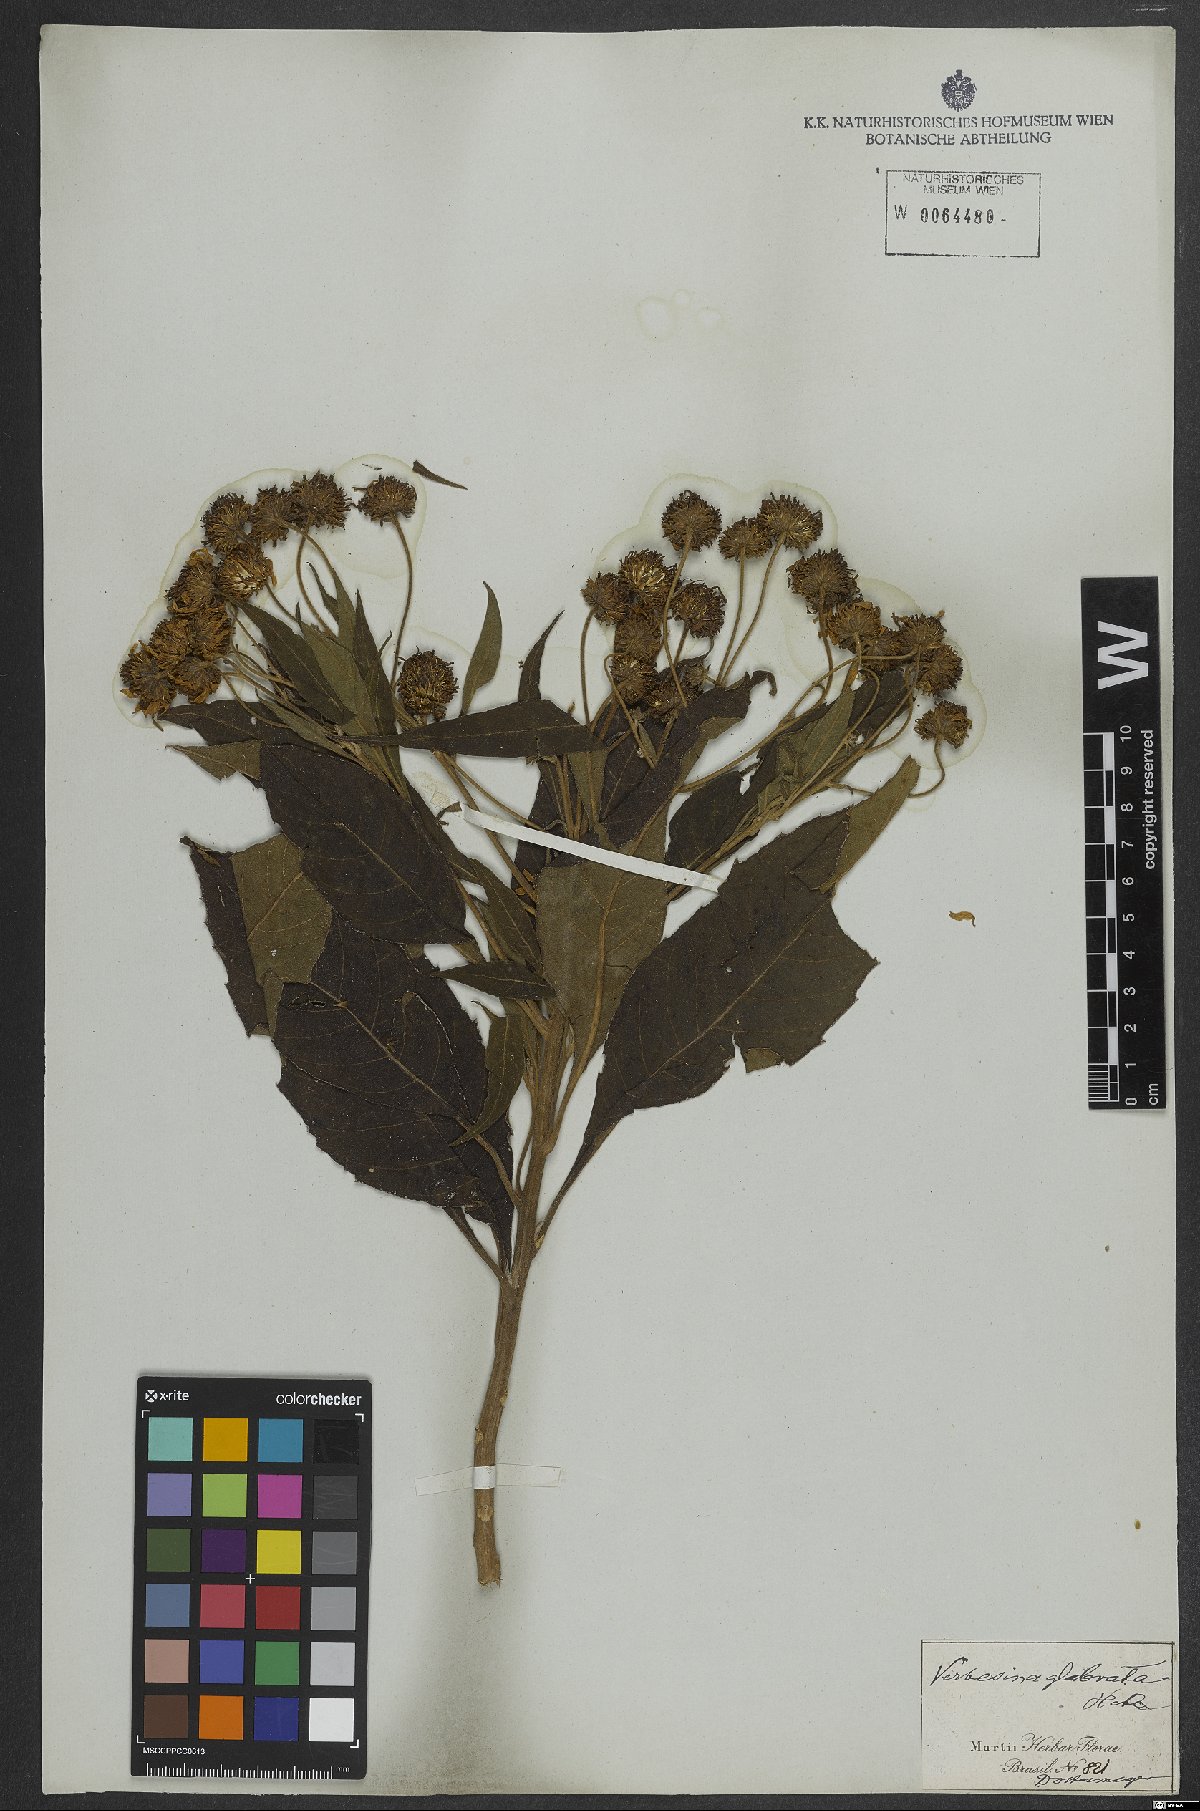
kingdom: Plantae
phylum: Tracheophyta
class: Magnoliopsida
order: Asterales
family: Asteraceae
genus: Lessingianthus
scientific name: Lessingianthus glabratus
